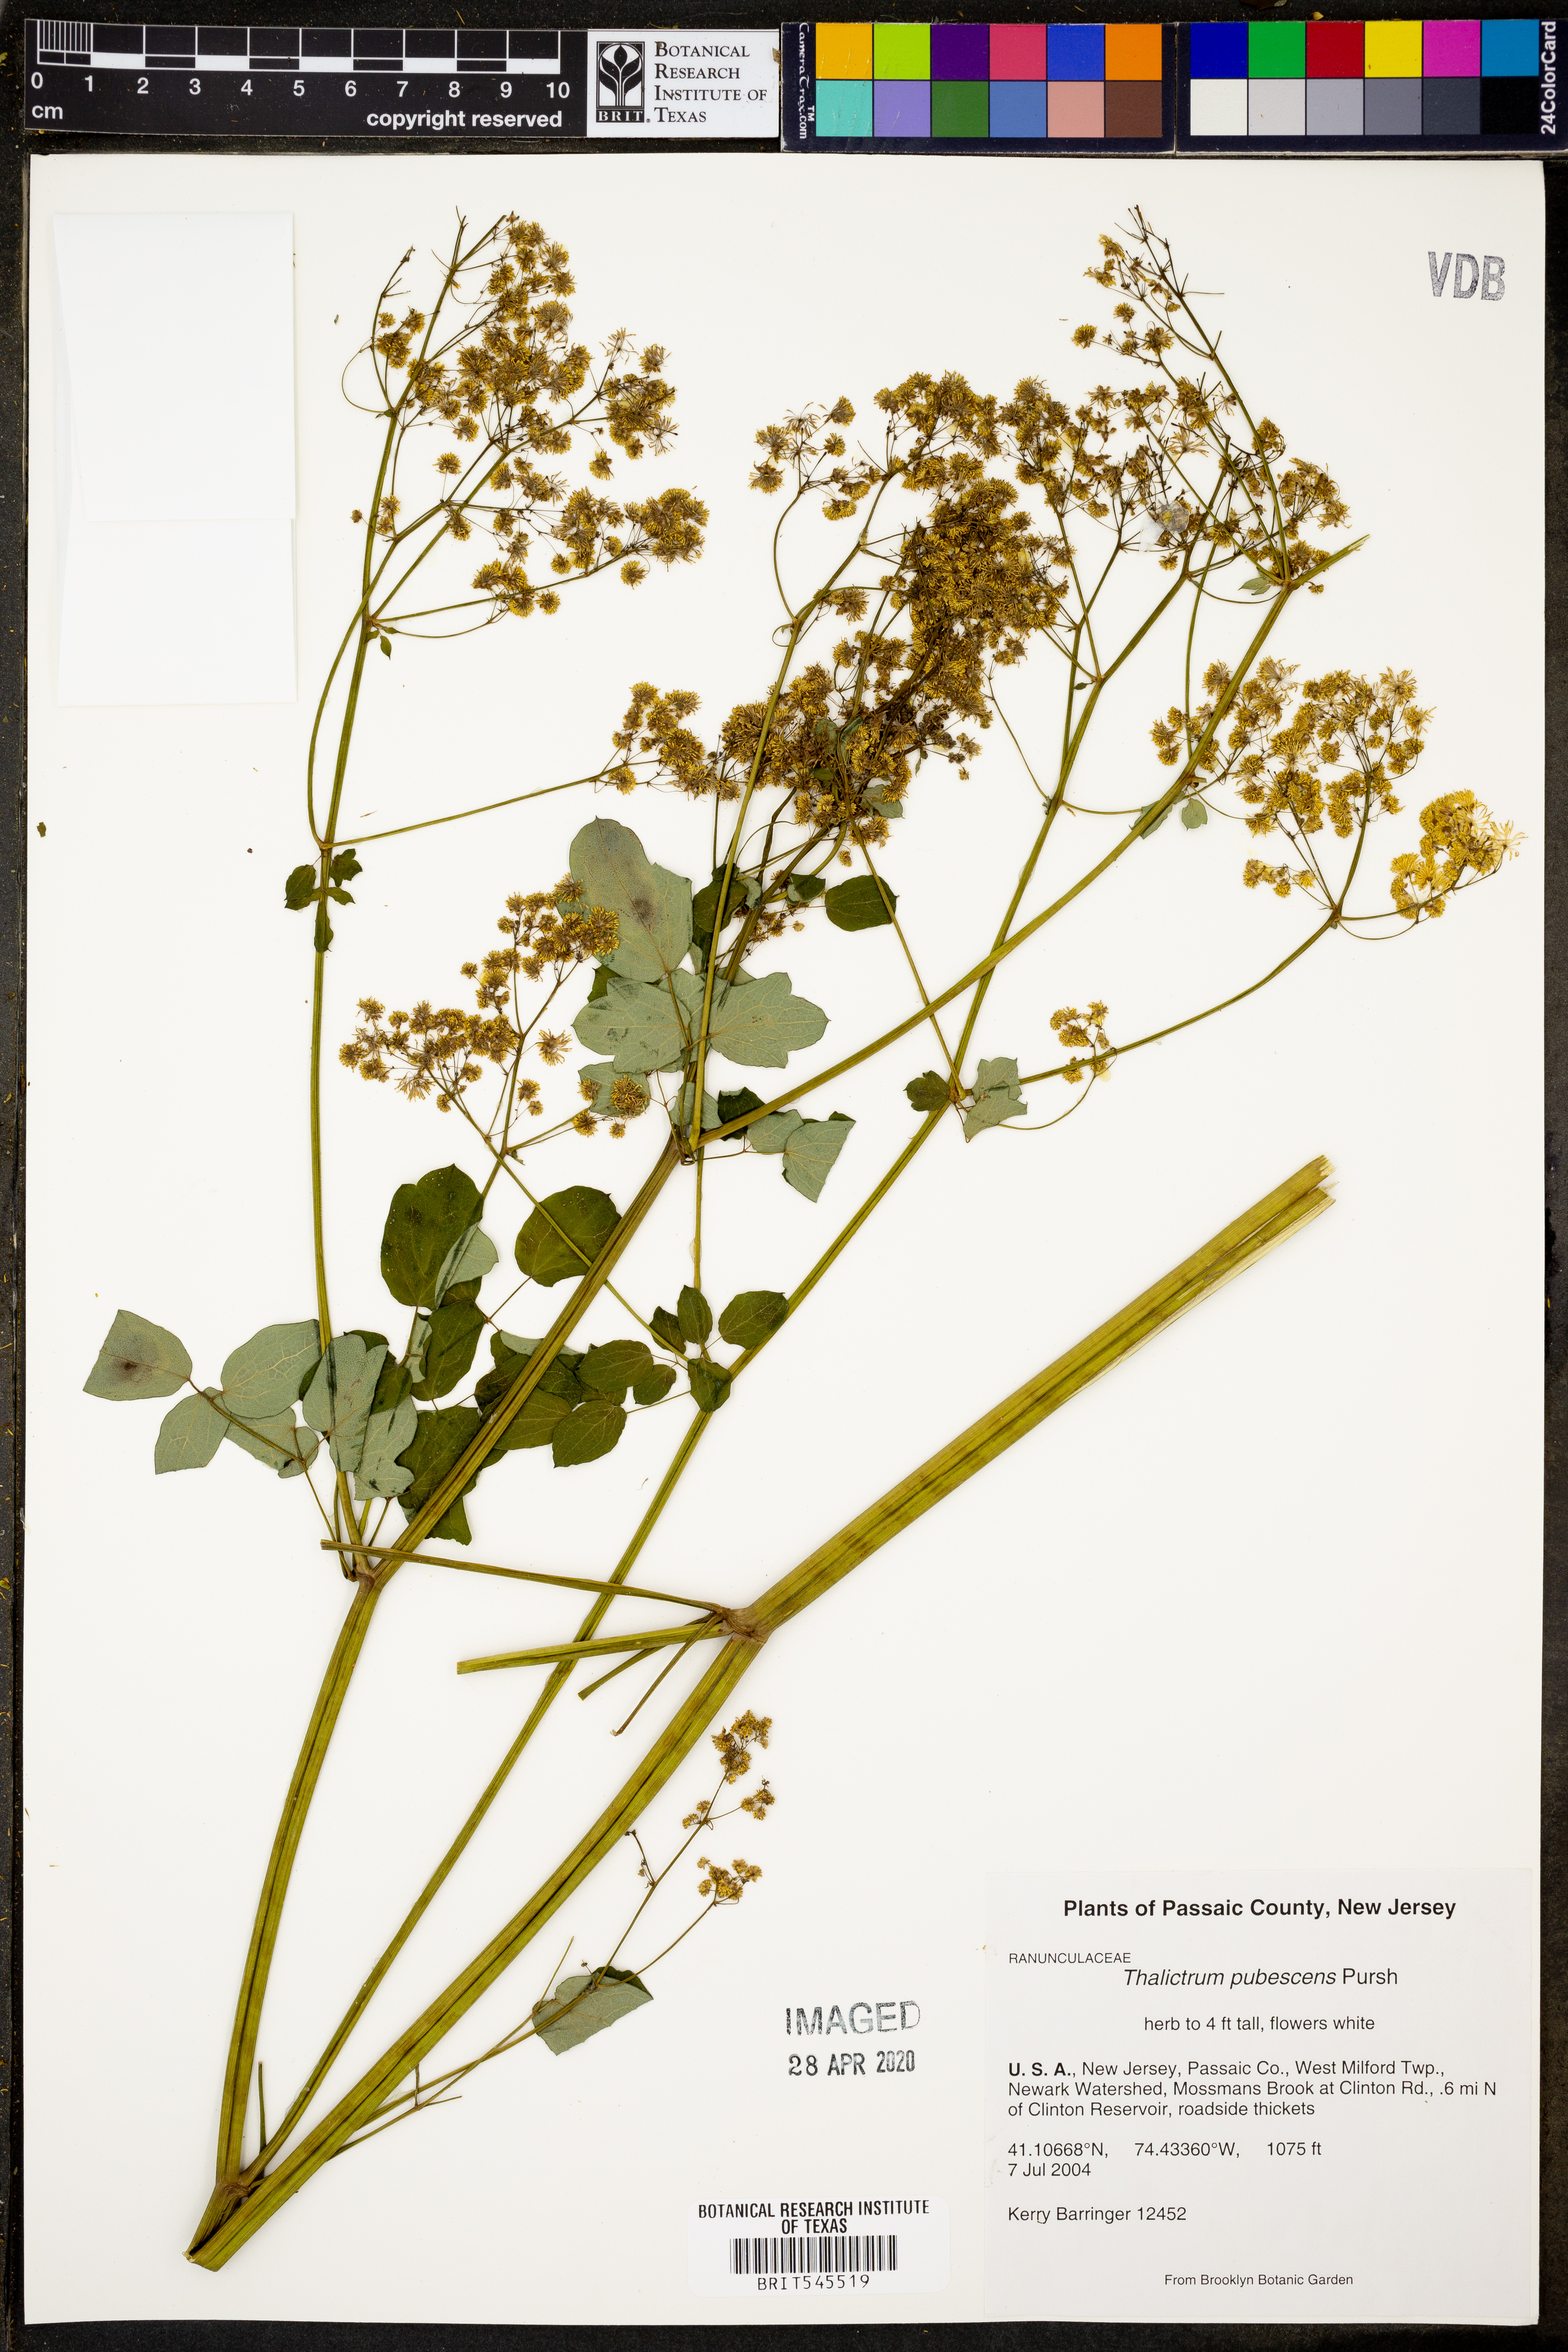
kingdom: Plantae
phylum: Tracheophyta
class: Magnoliopsida
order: Ranunculales
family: Ranunculaceae
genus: Thalictrum
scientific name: Thalictrum pubescens
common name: King-of-the-meadow
